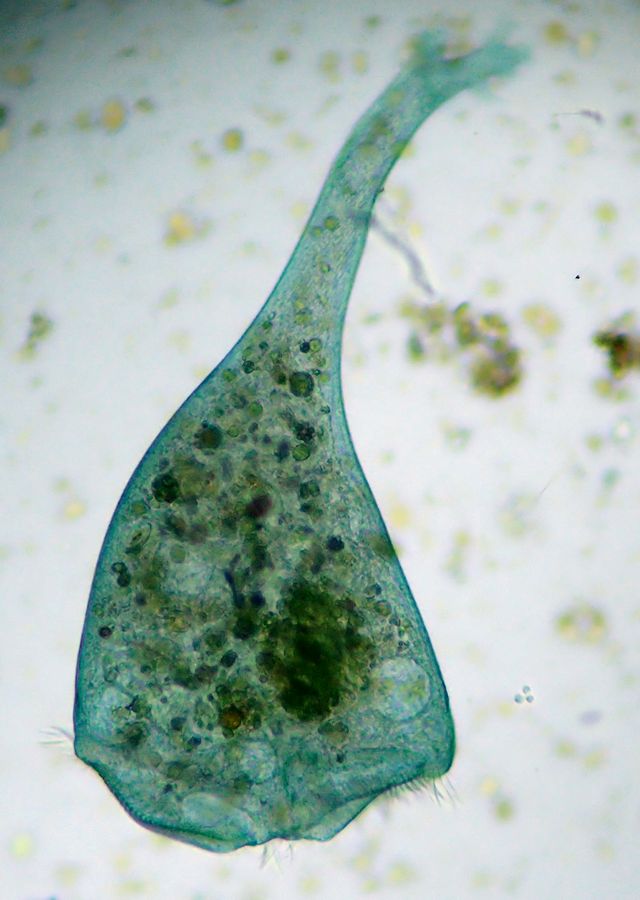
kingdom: Chromista
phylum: Ciliophora
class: Heterotrichea
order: Heterotrichida
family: Stentoridae
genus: Stentor
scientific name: Stentor coeruleus
